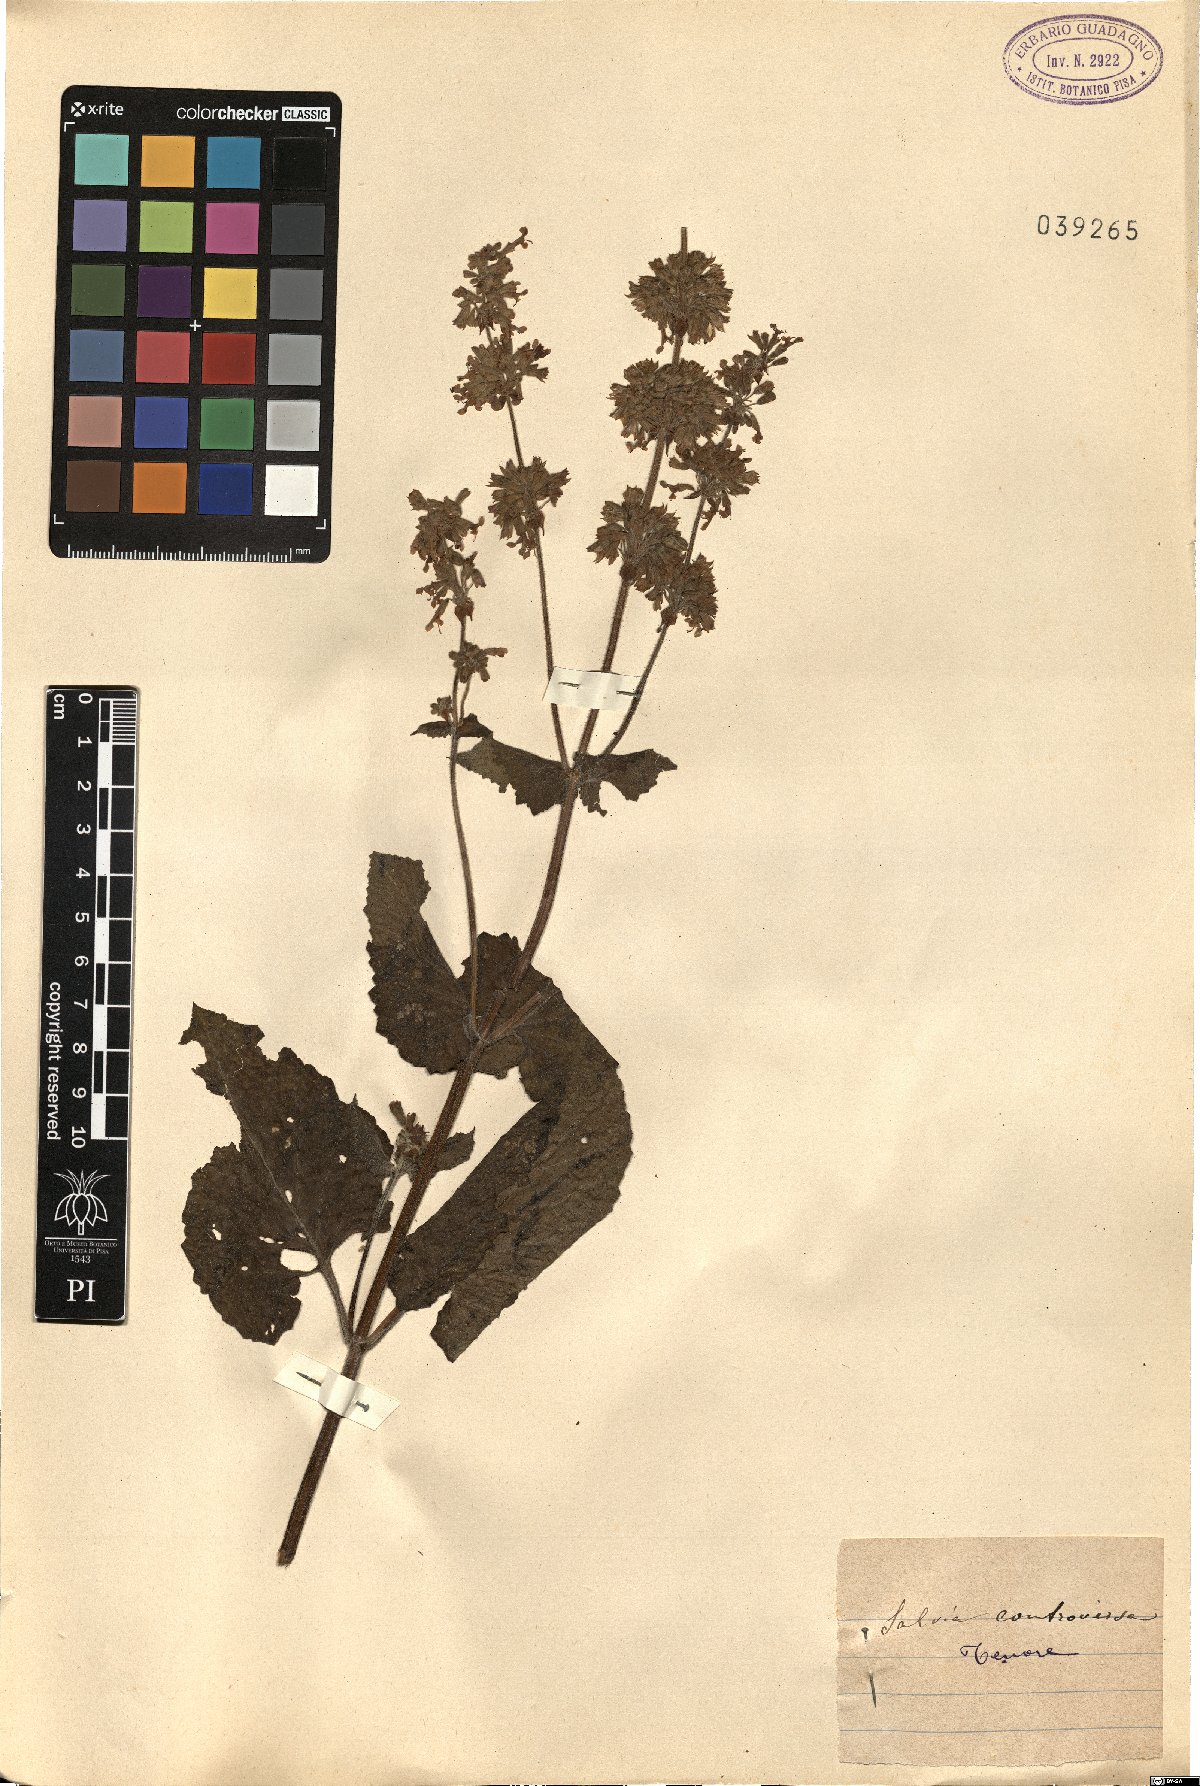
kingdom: Plantae
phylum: Tracheophyta
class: Magnoliopsida
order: Lamiales
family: Lamiaceae
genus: Salvia
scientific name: Salvia verbenaca
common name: Wild clary
